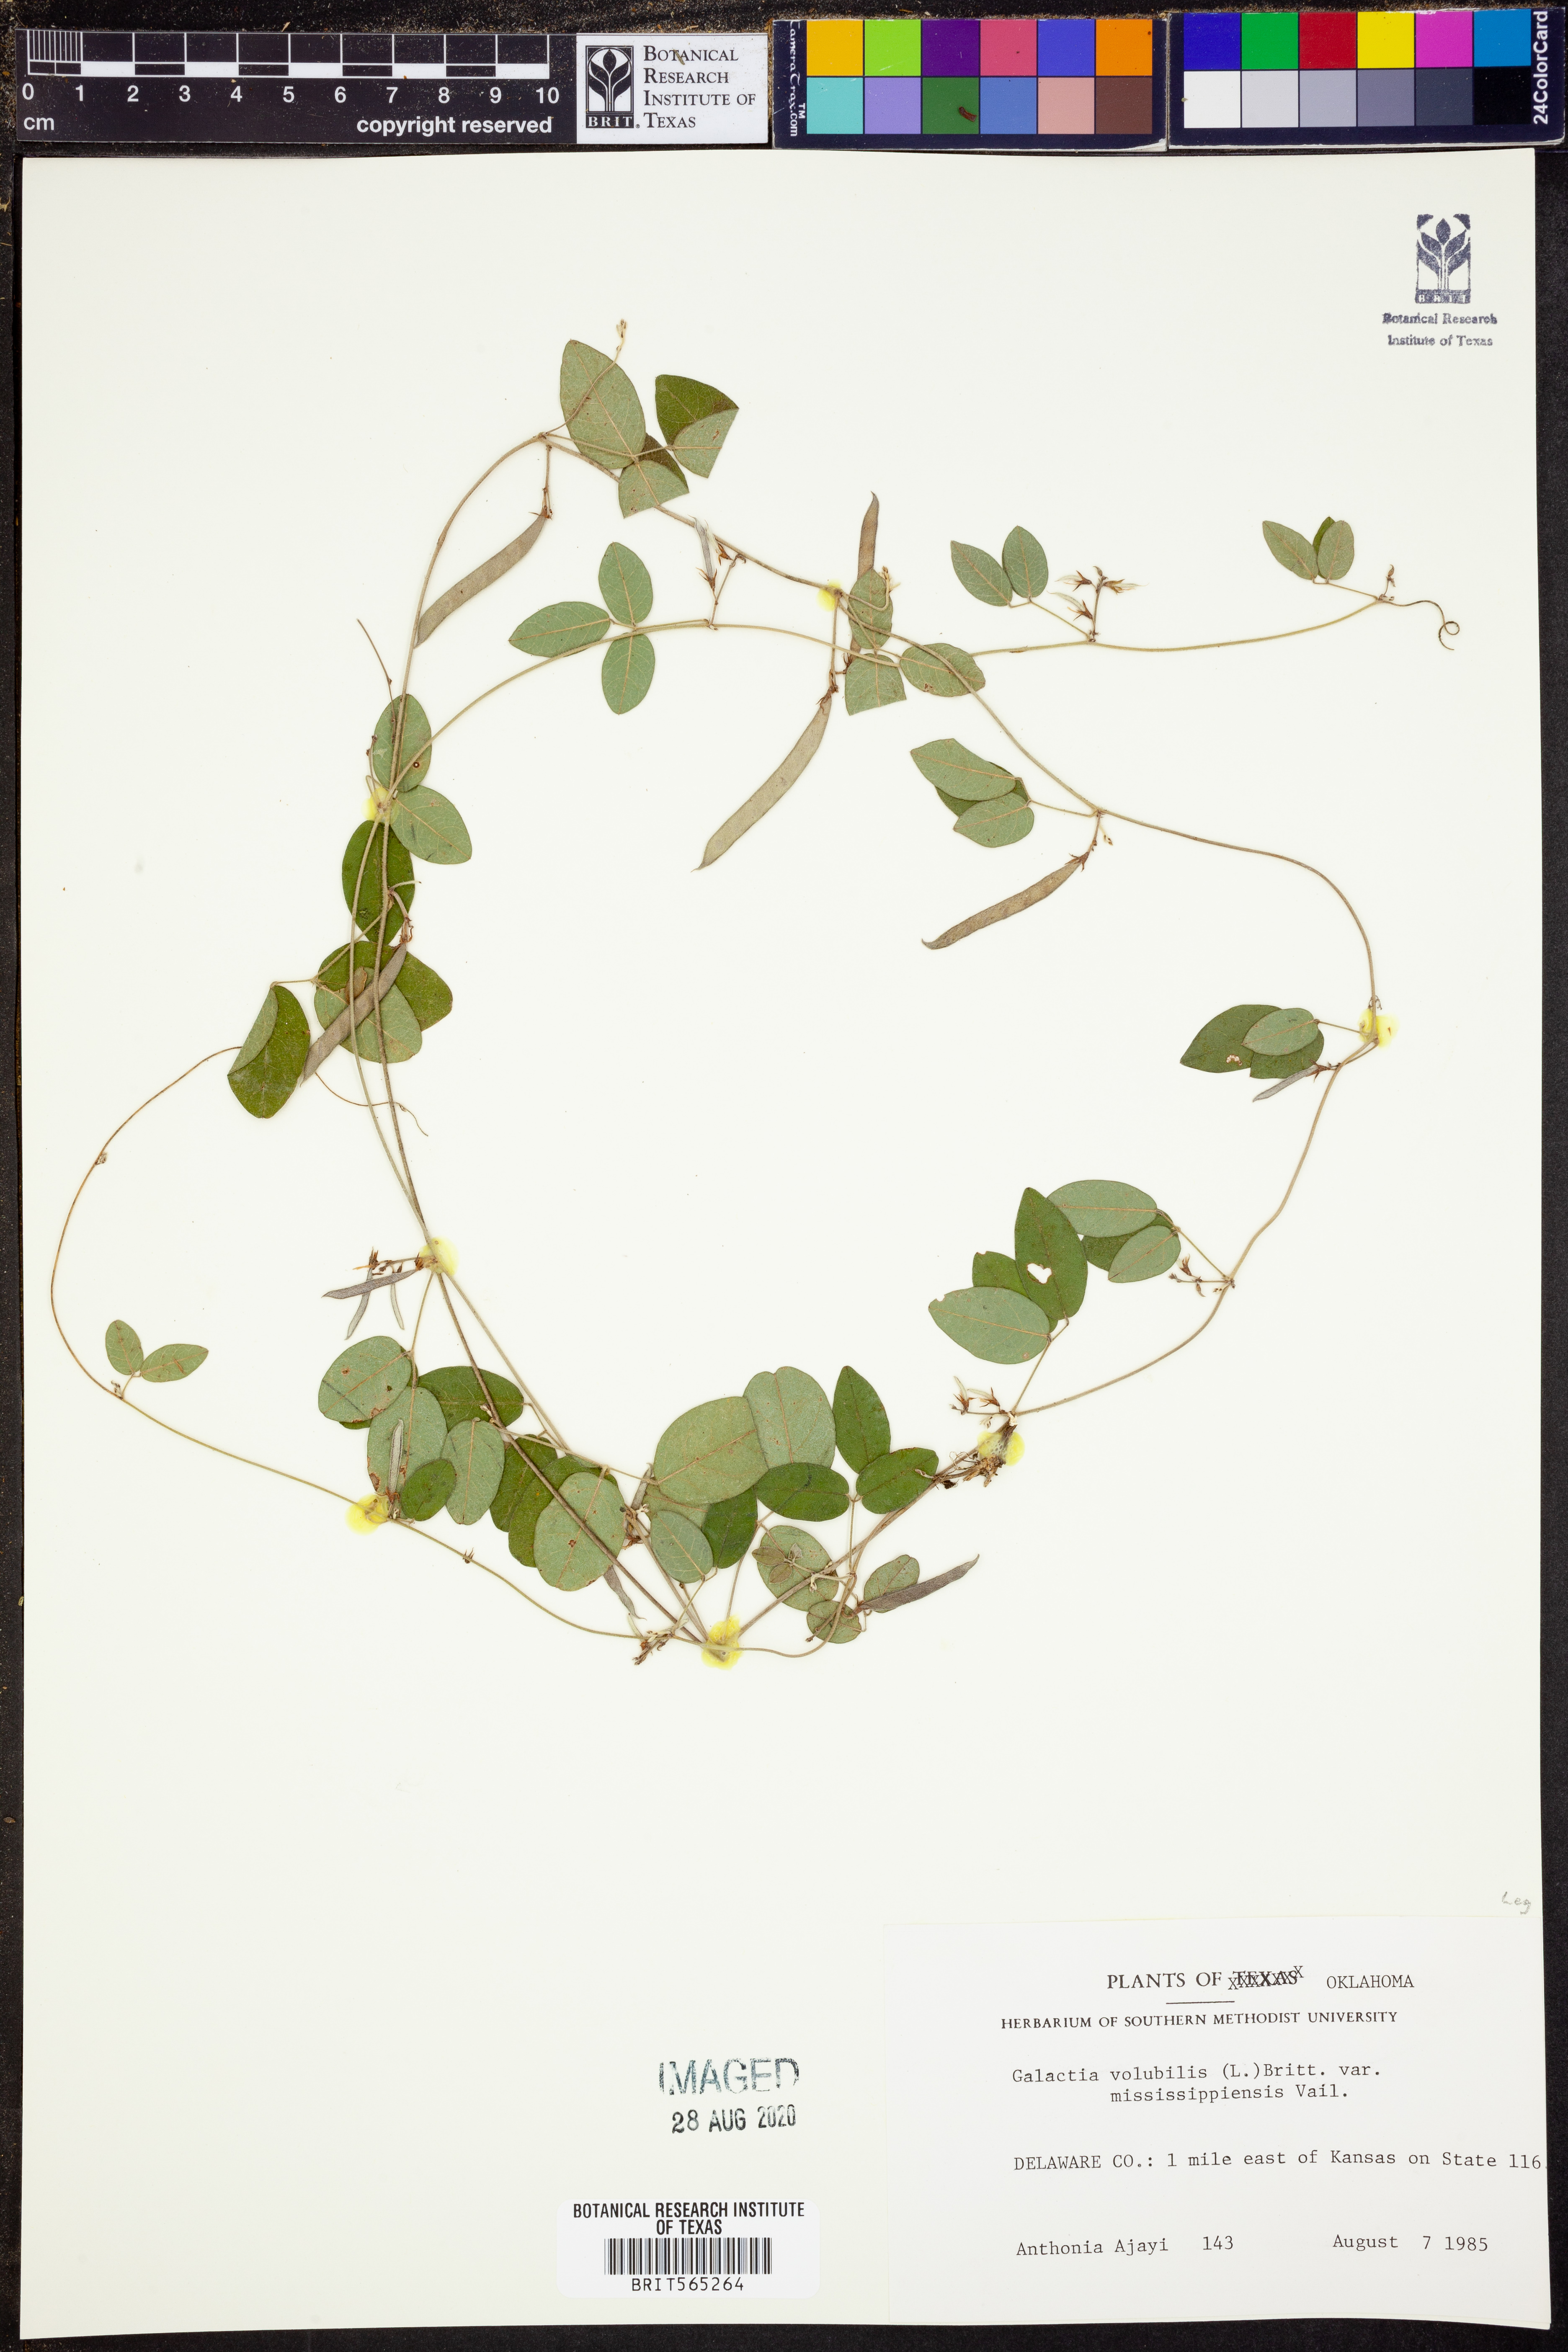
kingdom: Plantae
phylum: Tracheophyta
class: Magnoliopsida
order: Fabales
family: Fabaceae
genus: Galactia
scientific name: Galactia volubilis
